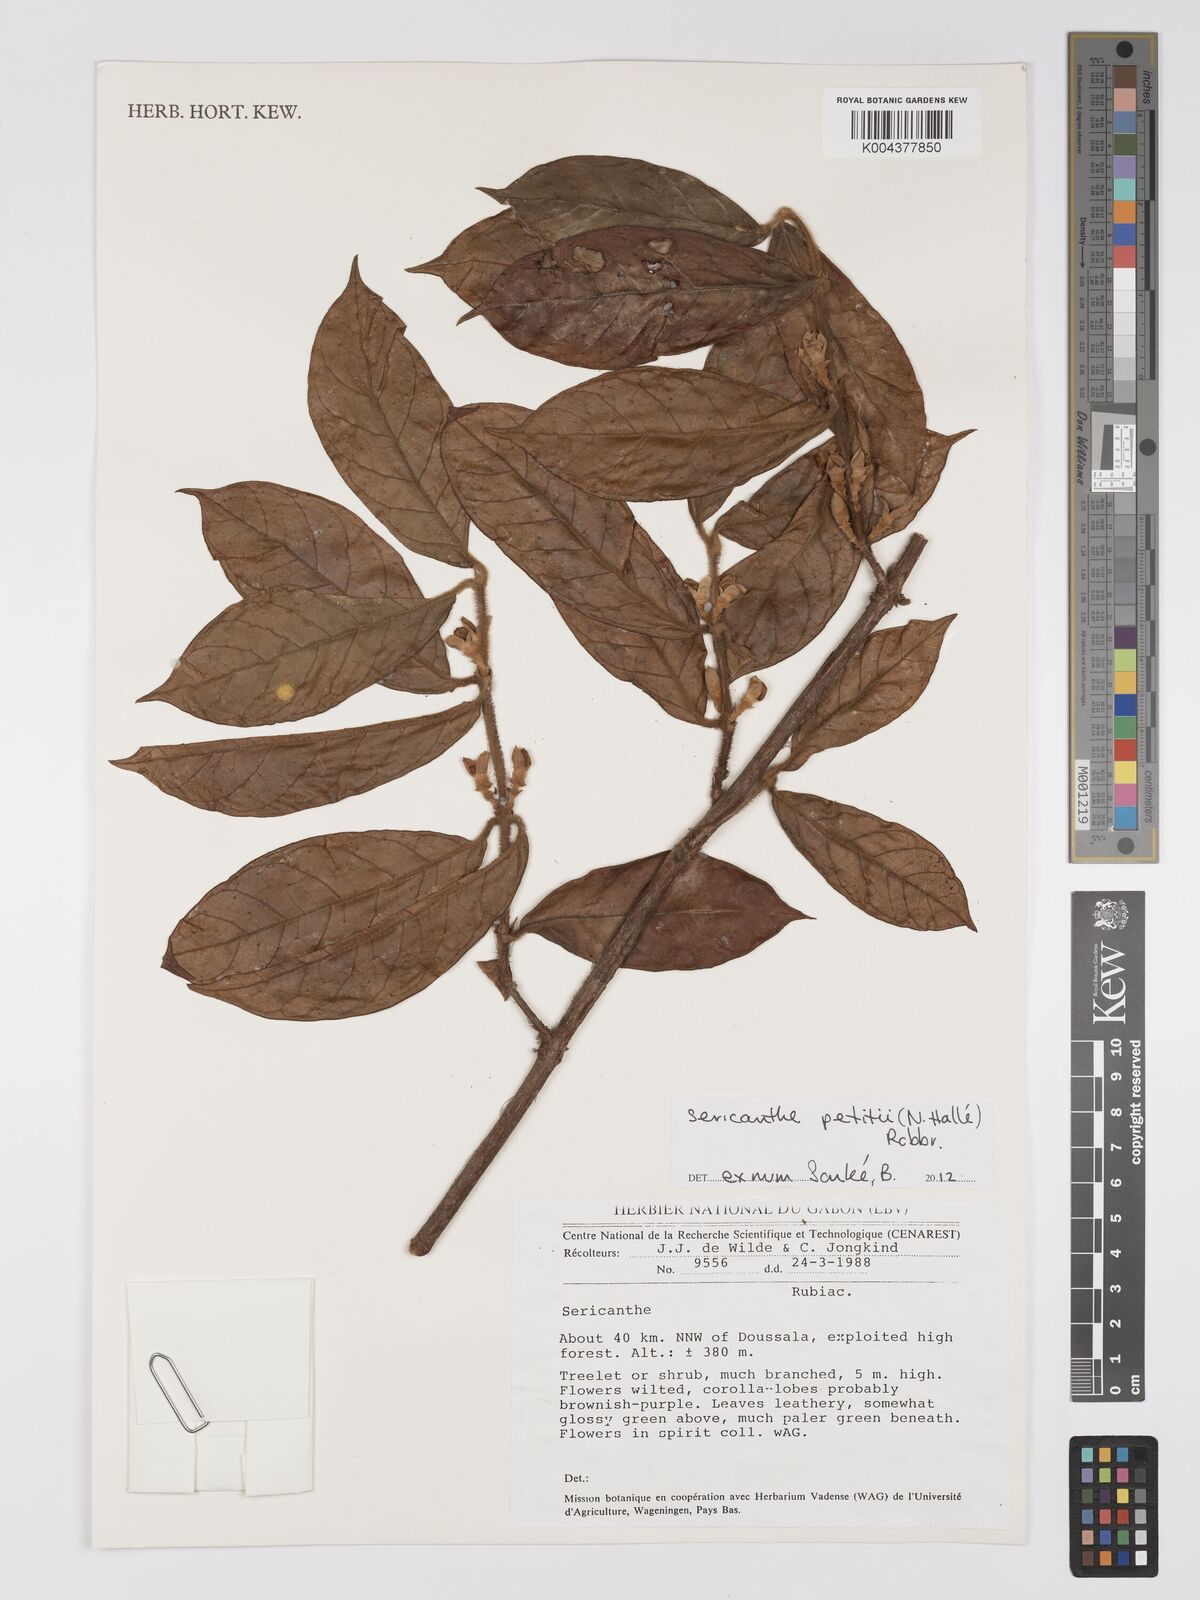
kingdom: Plantae
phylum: Tracheophyta
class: Magnoliopsida
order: Gentianales
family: Rubiaceae
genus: Sericanthe
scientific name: Sericanthe petitii
